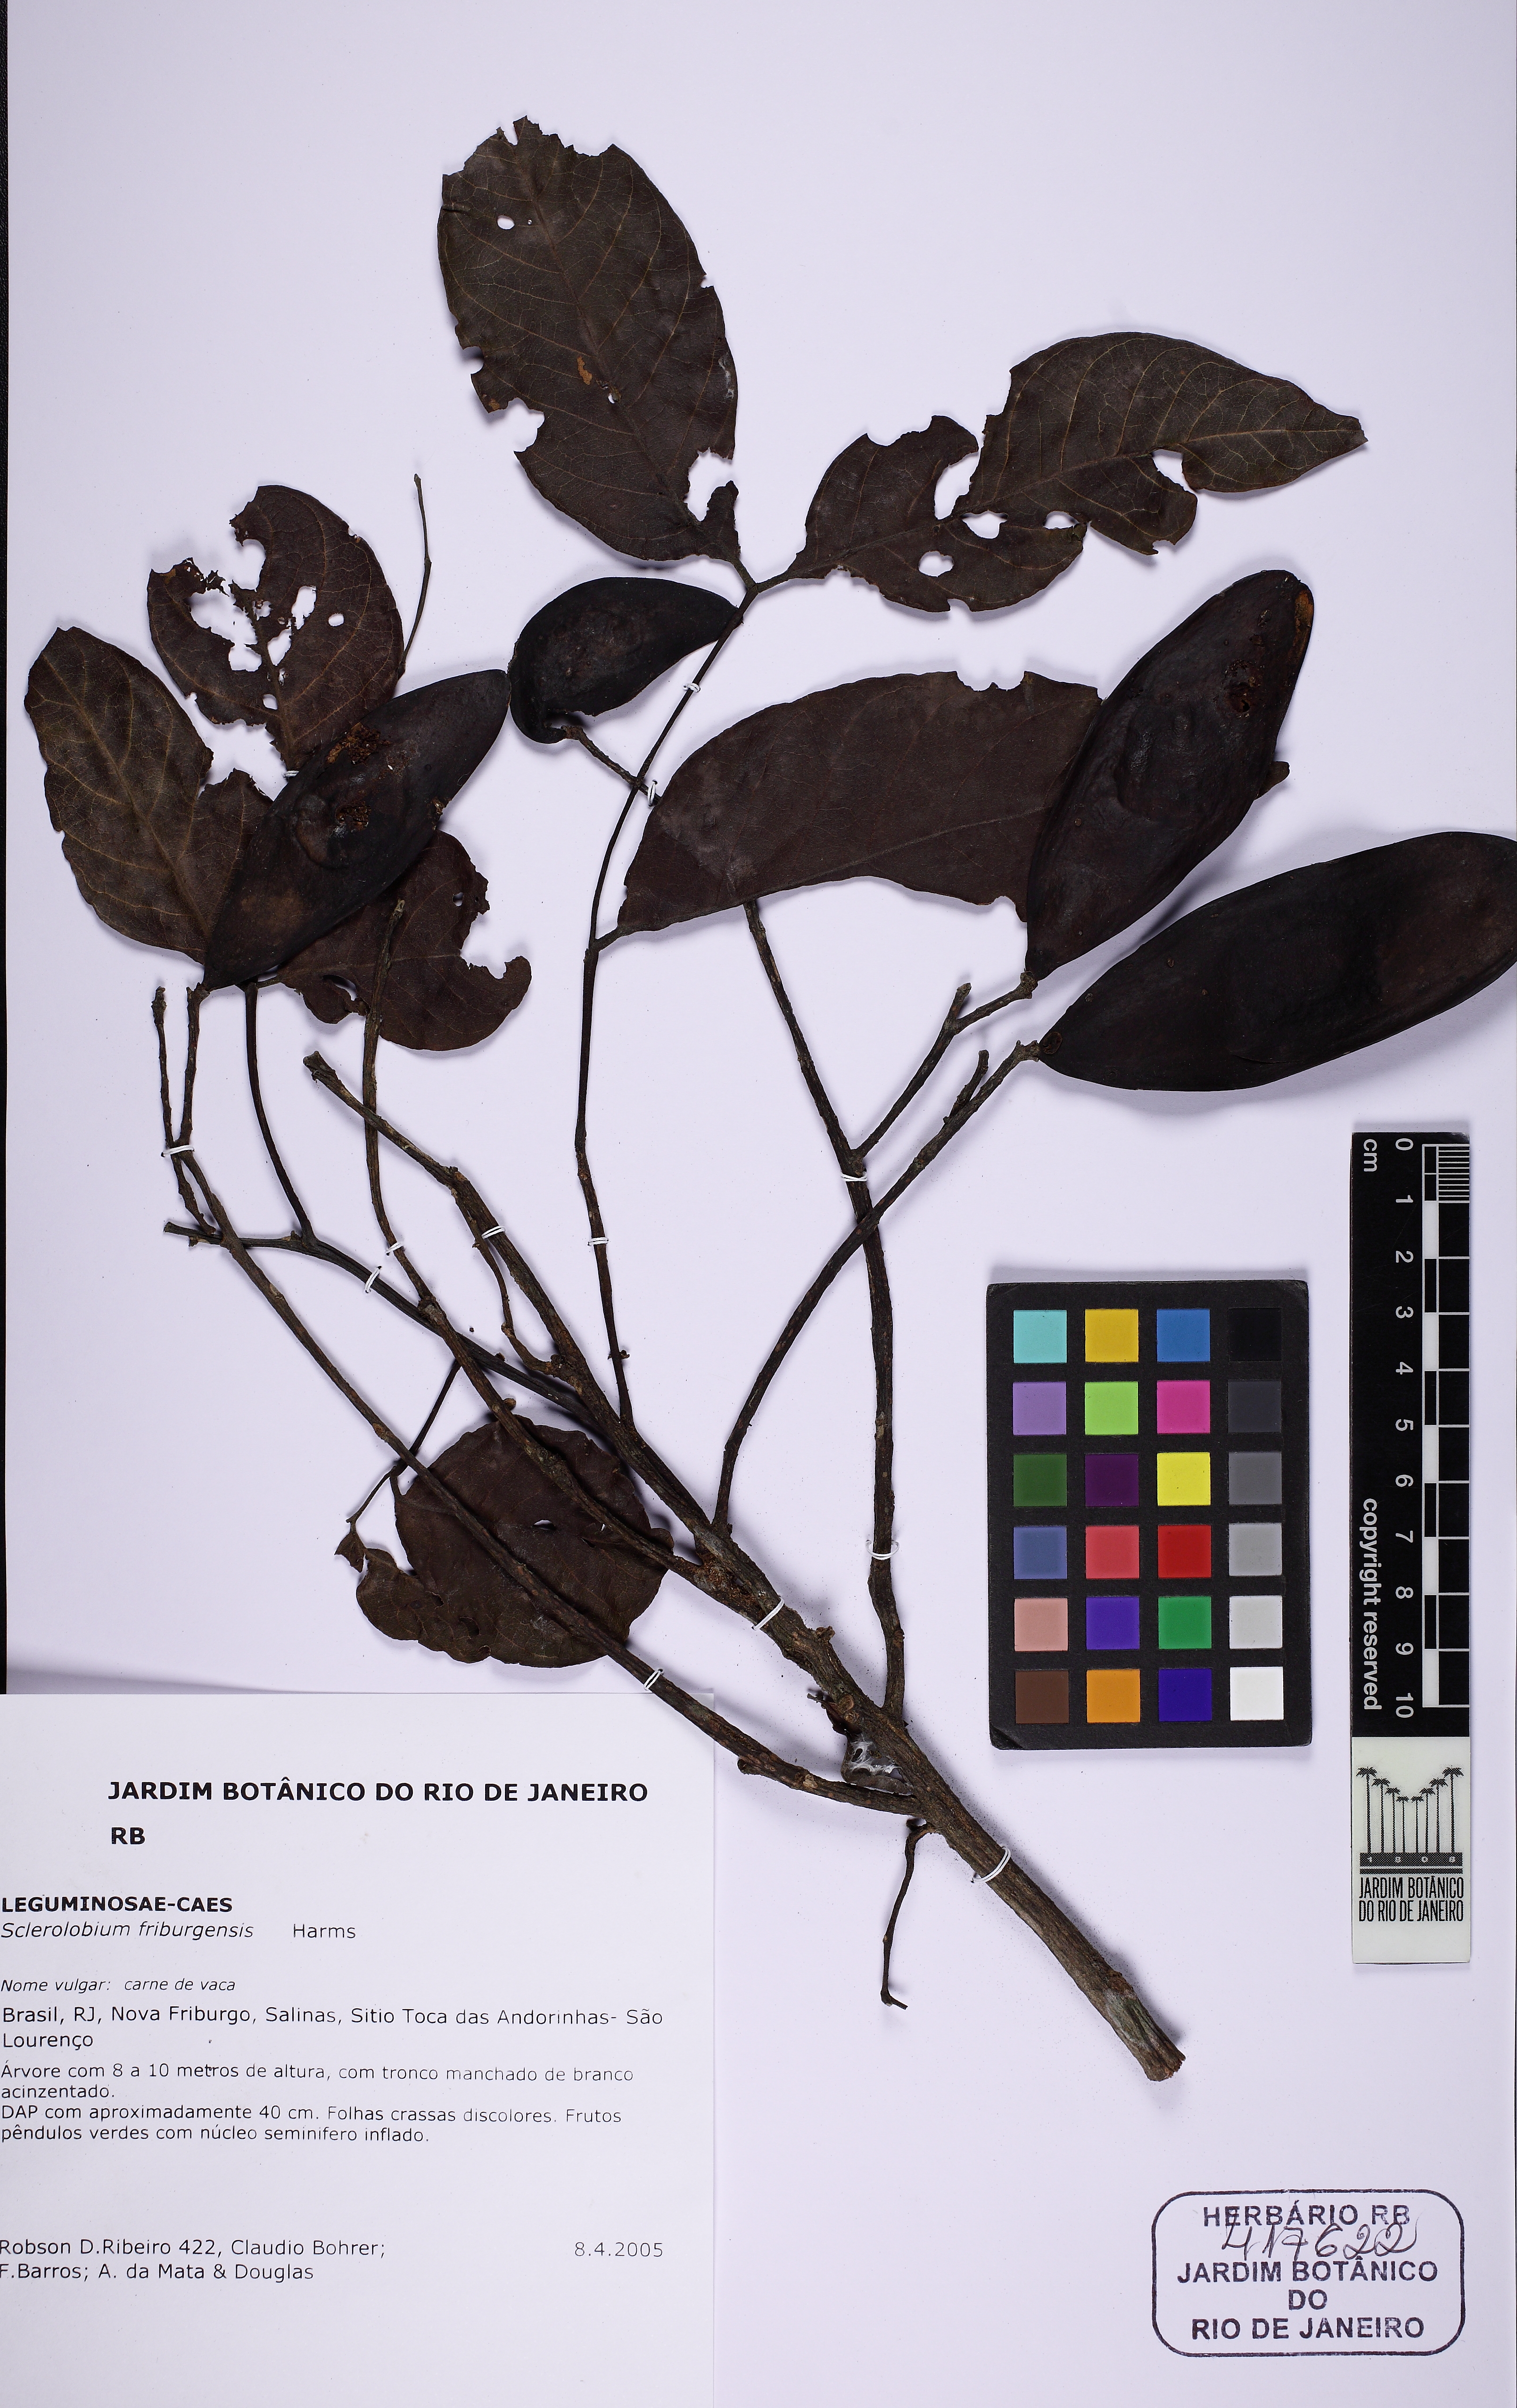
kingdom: Plantae
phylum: Tracheophyta
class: Magnoliopsida
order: Fabales
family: Fabaceae
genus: Tachigali
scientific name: Tachigali friburgensis
